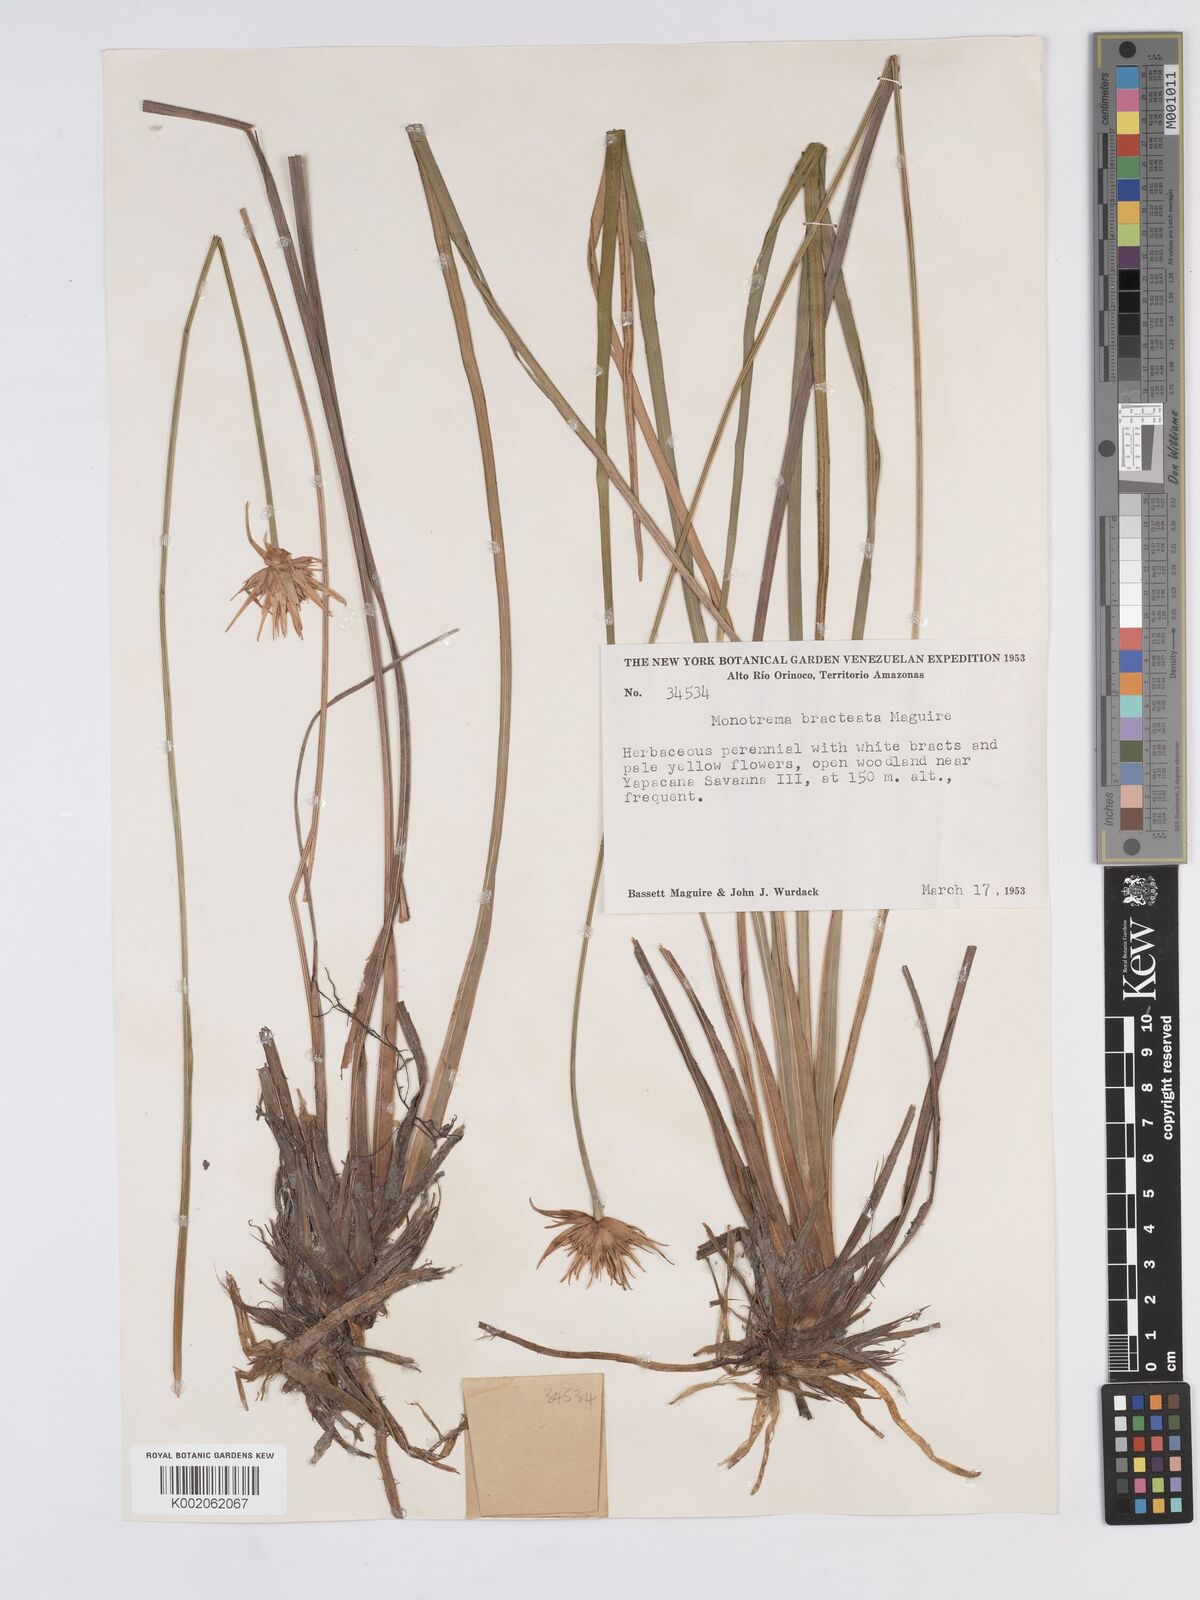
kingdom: Plantae
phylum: Tracheophyta
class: Liliopsida
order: Poales
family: Rapateaceae
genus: Monotrema
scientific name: Monotrema bracteatum
